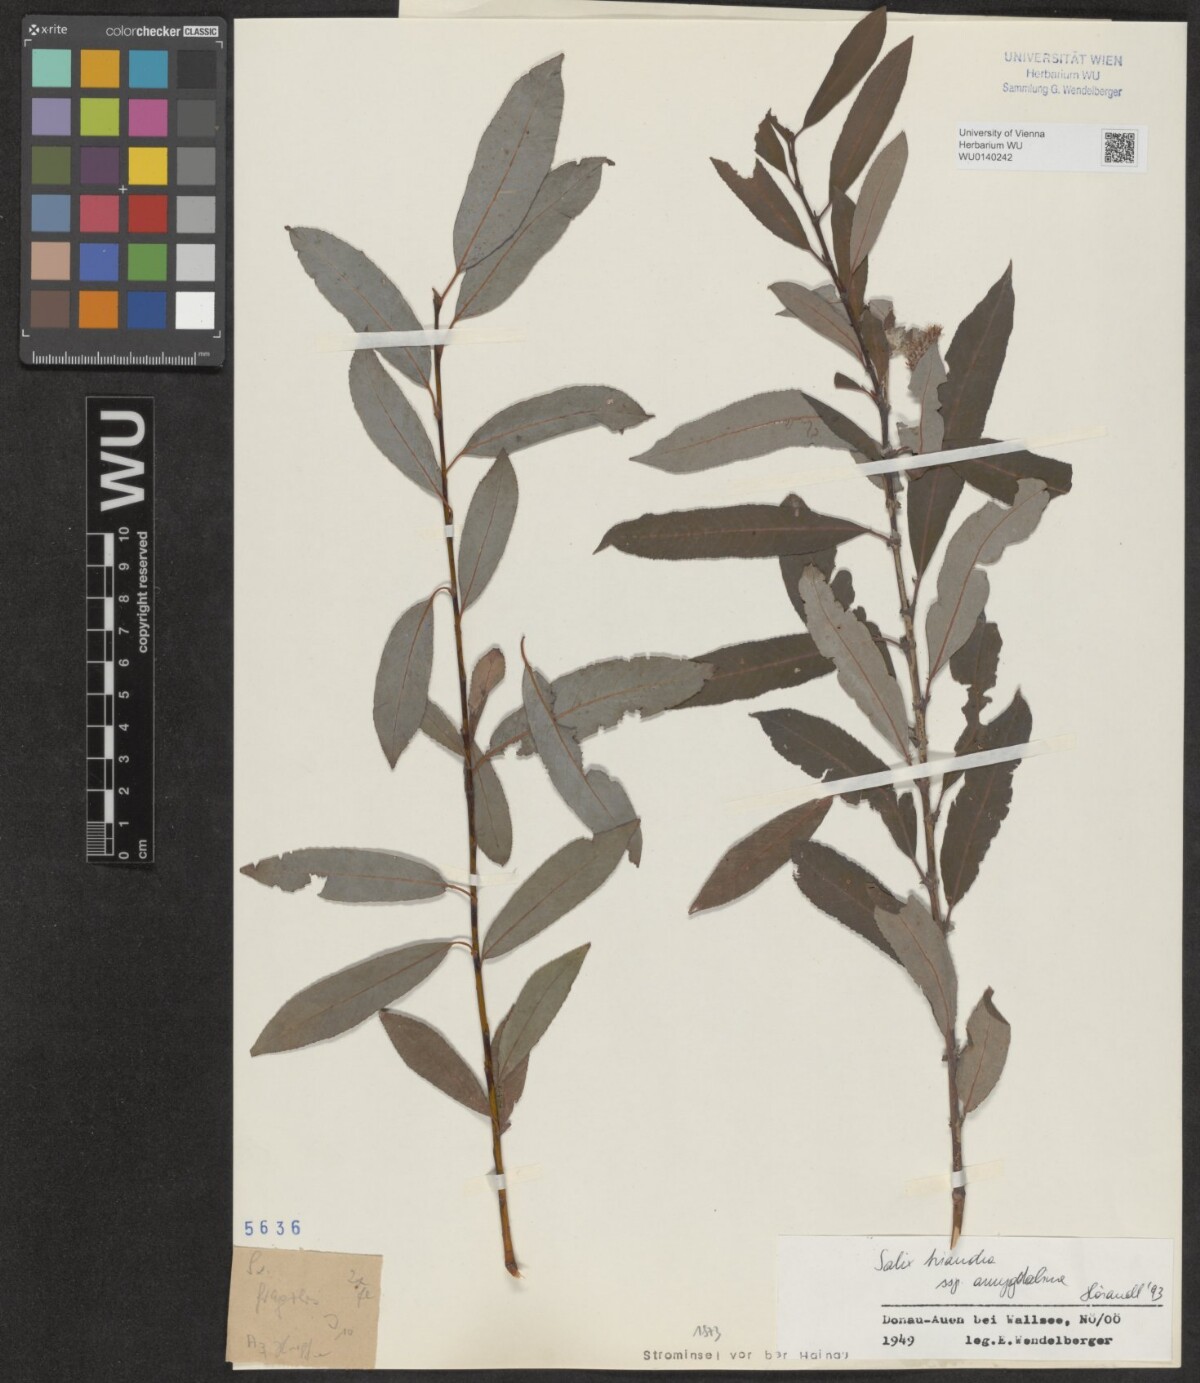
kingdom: Plantae
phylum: Tracheophyta
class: Magnoliopsida
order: Malpighiales
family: Salicaceae
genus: Salix
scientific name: Salix triandra
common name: Almond willow
